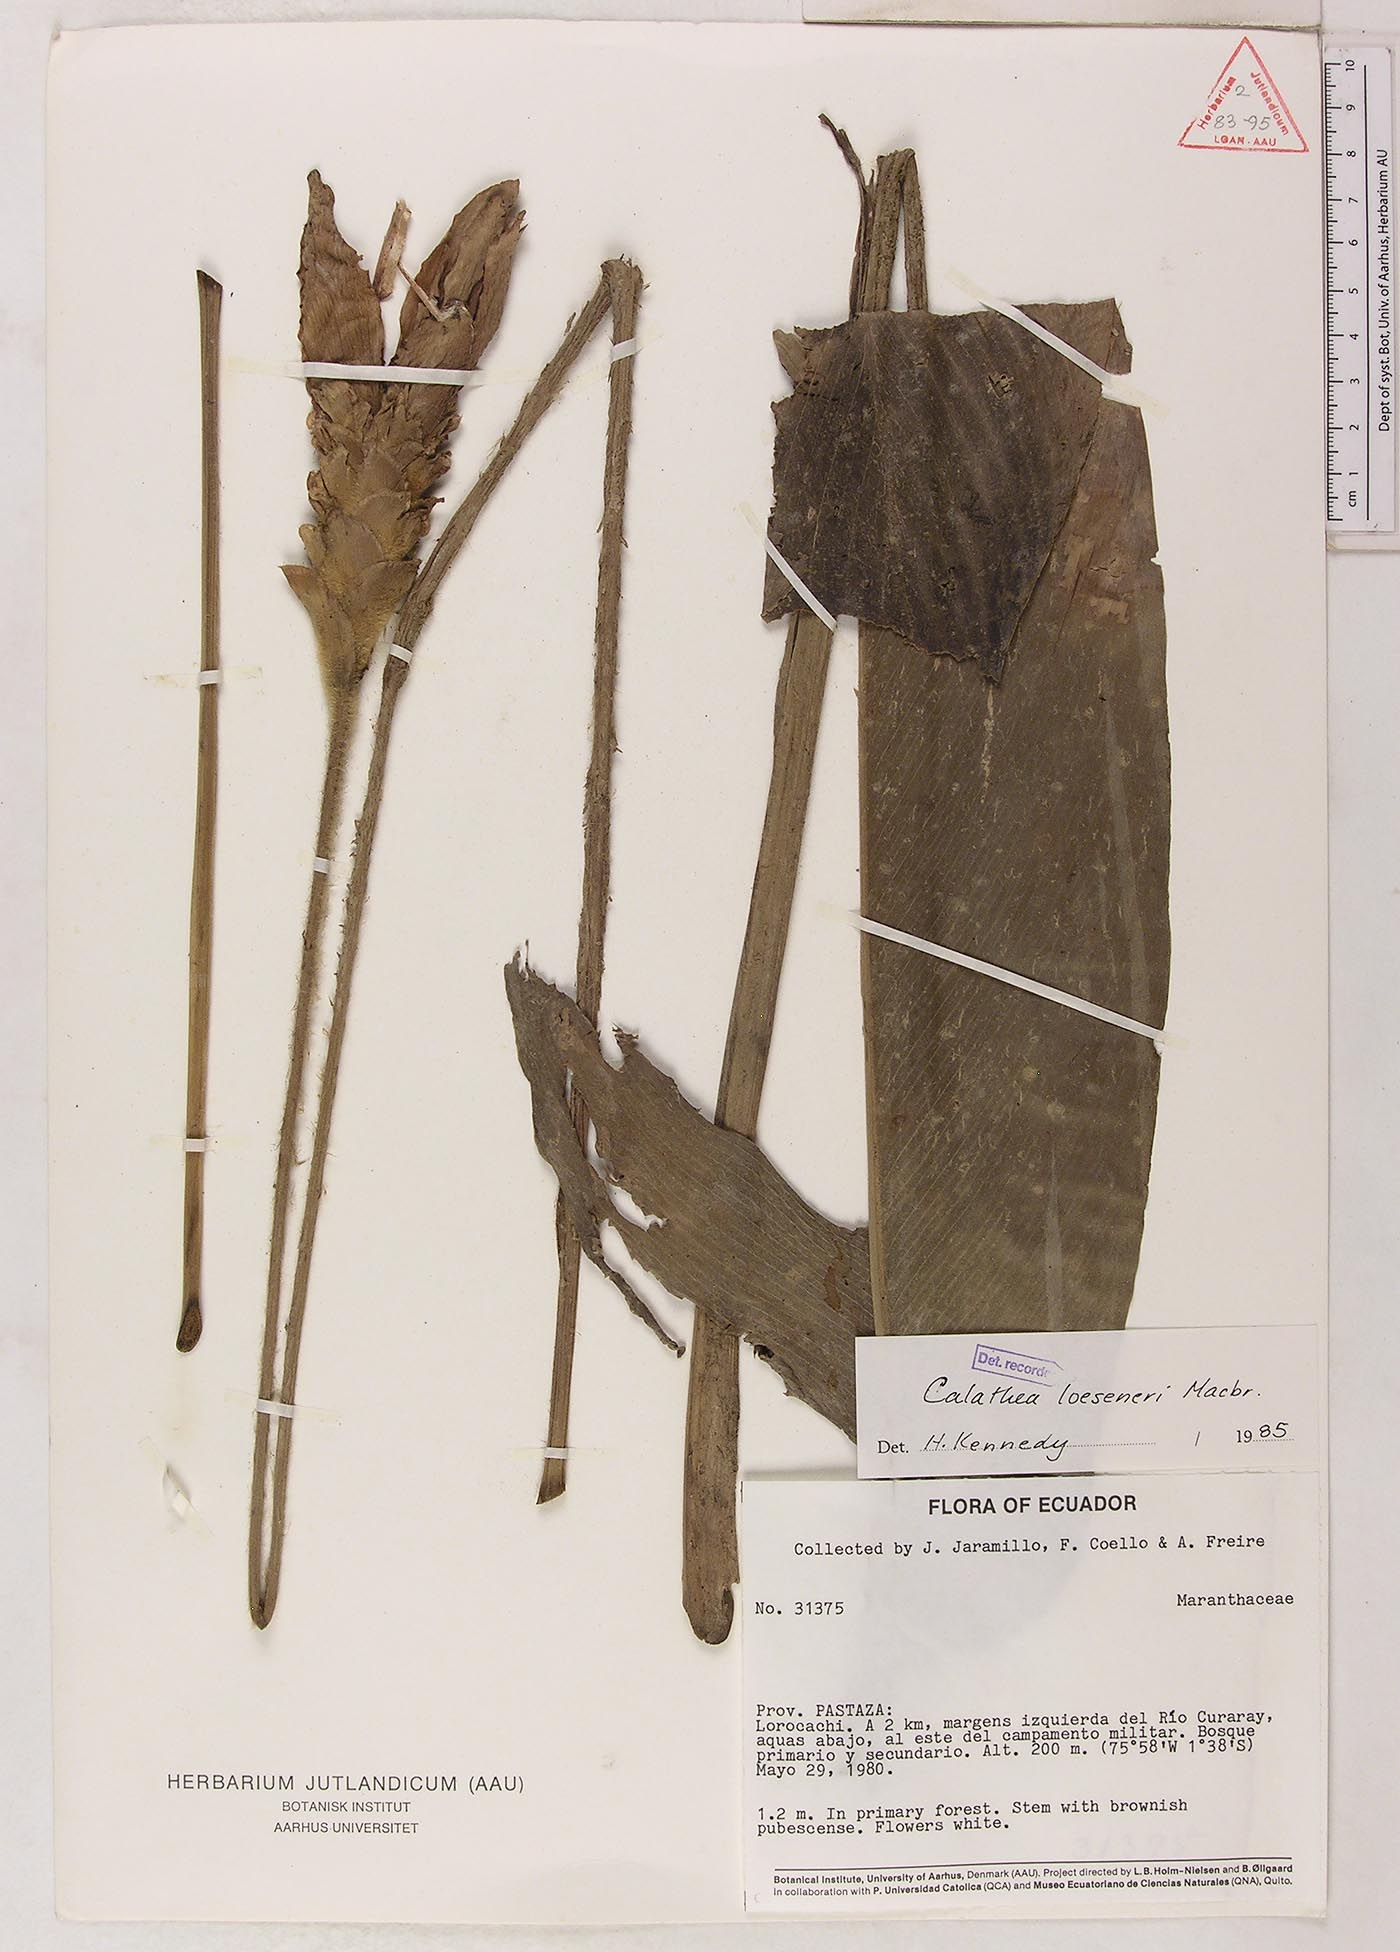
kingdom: Plantae
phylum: Tracheophyta
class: Liliopsida
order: Zingiberales
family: Marantaceae
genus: Goeppertia
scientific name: Goeppertia loeseneri
